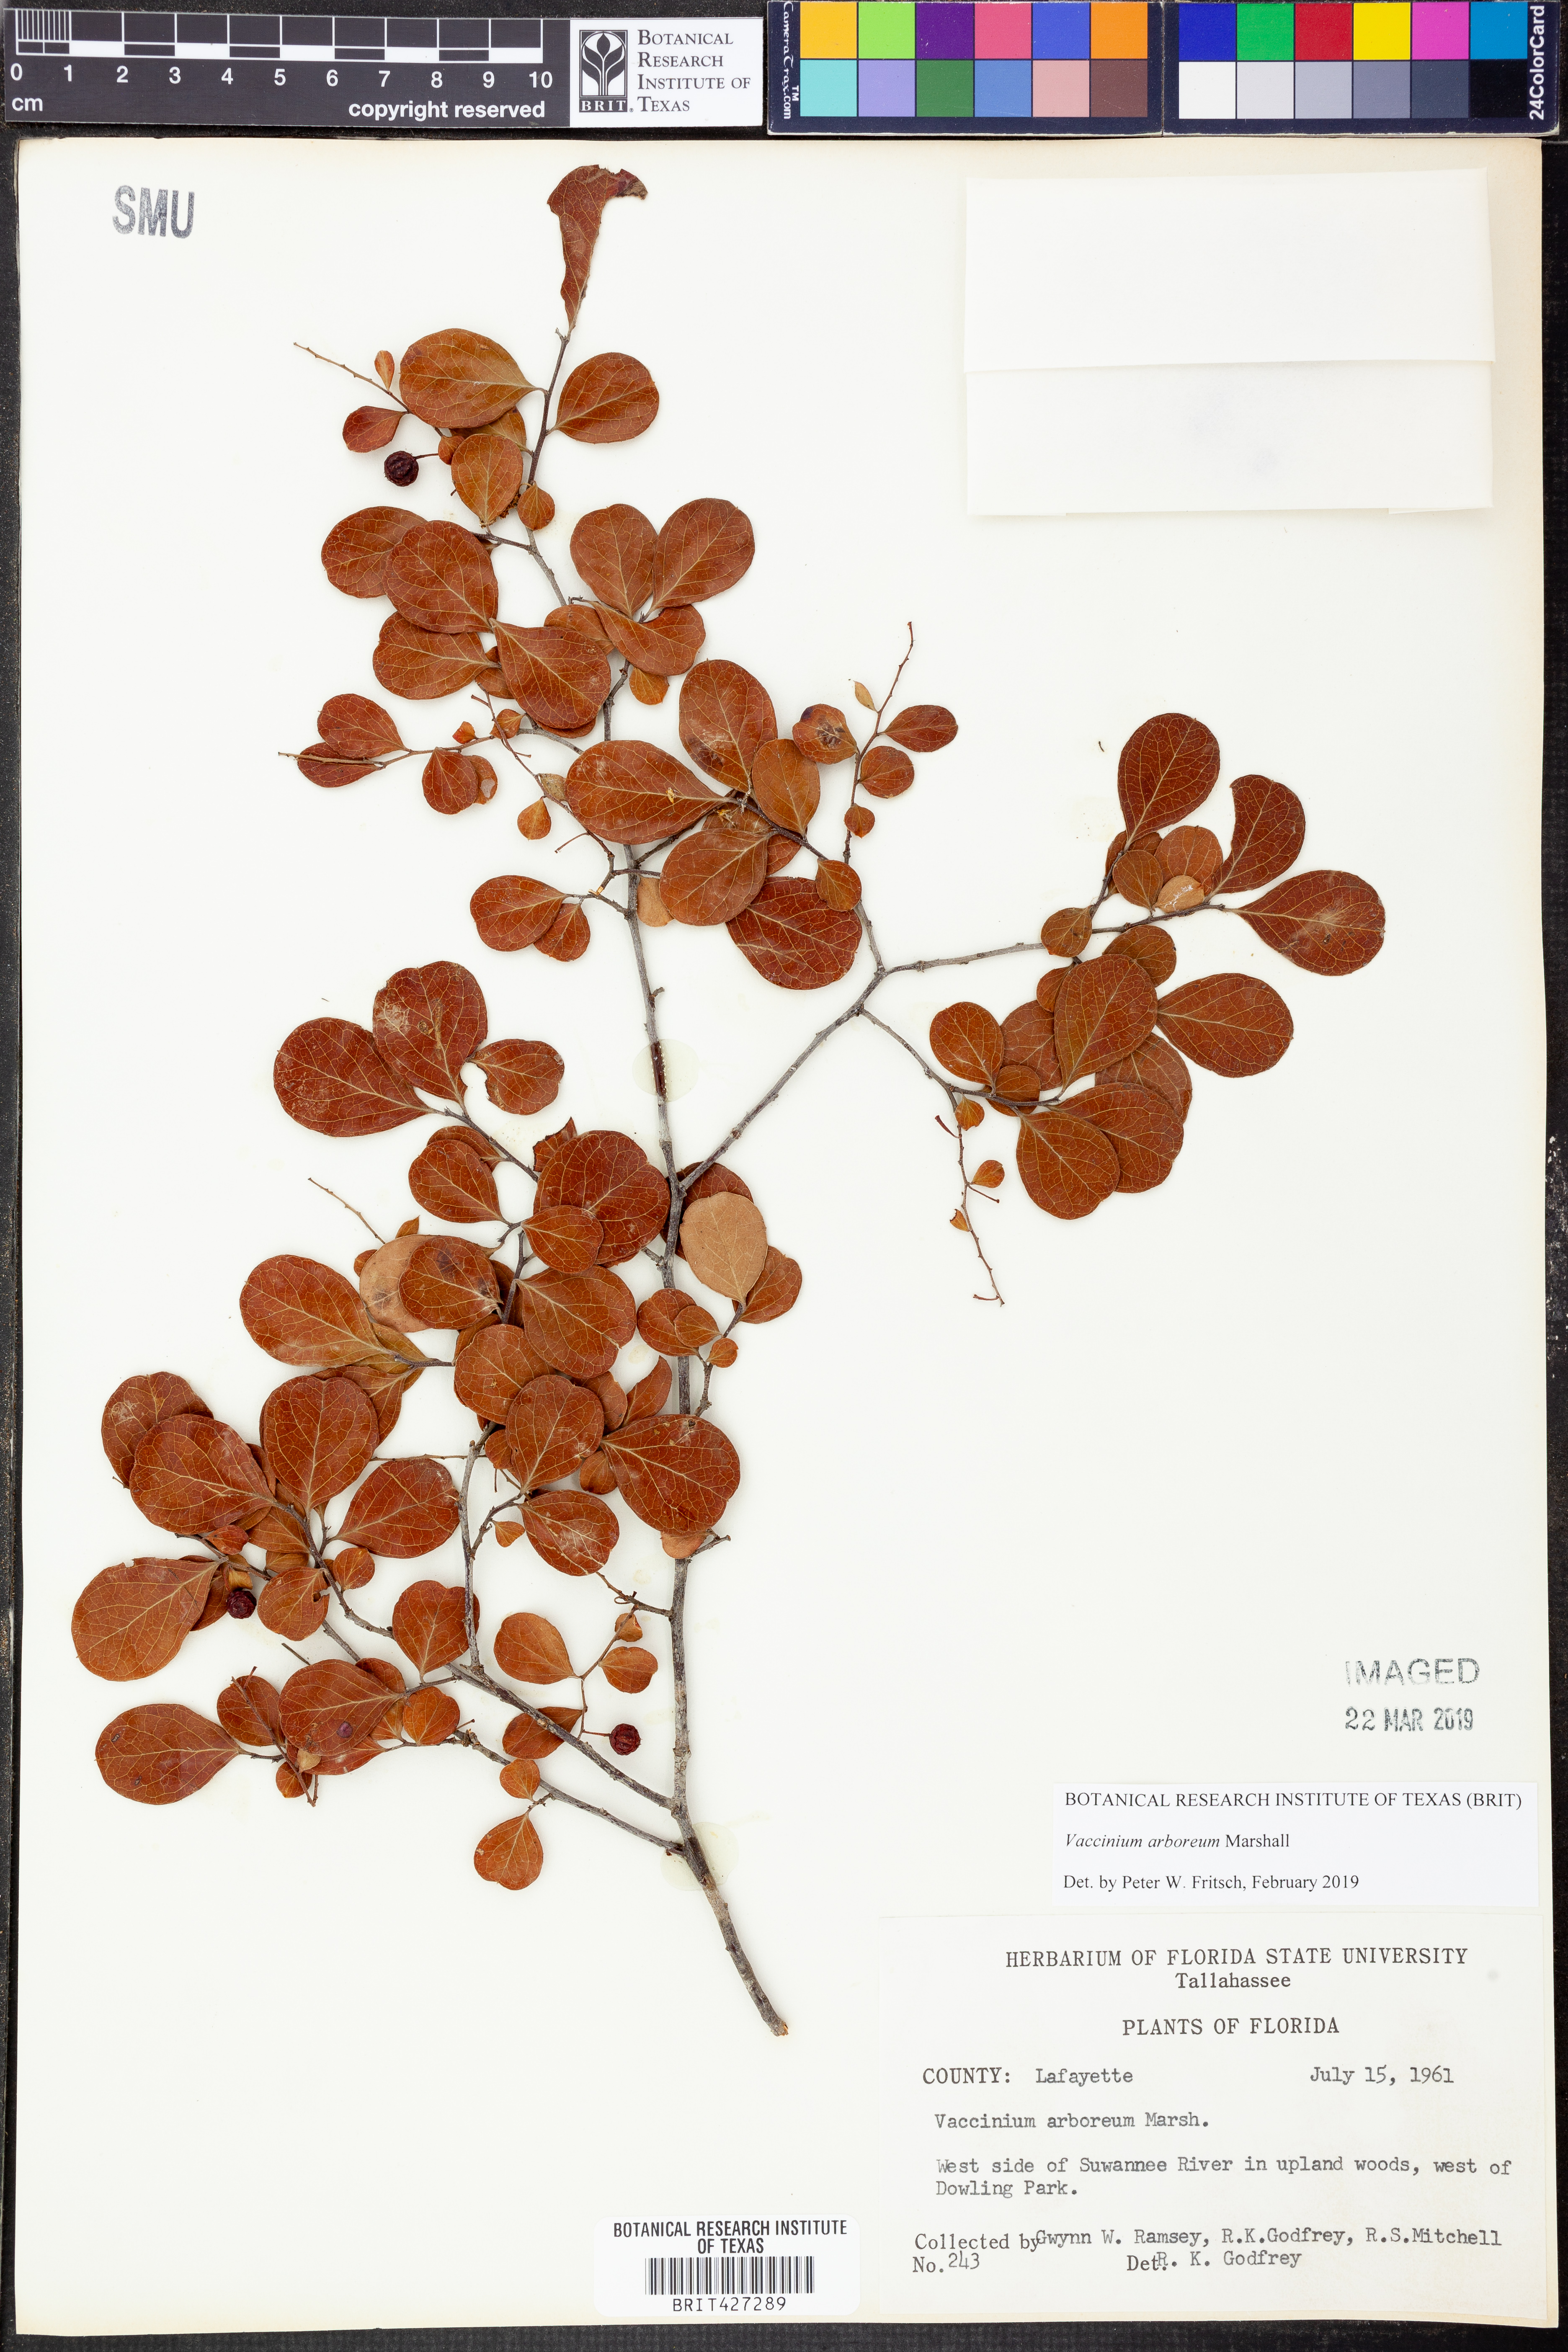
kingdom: Plantae
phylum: Tracheophyta
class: Magnoliopsida
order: Ericales
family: Ericaceae
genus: Vaccinium
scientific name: Vaccinium arboreum
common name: Farkleberry
